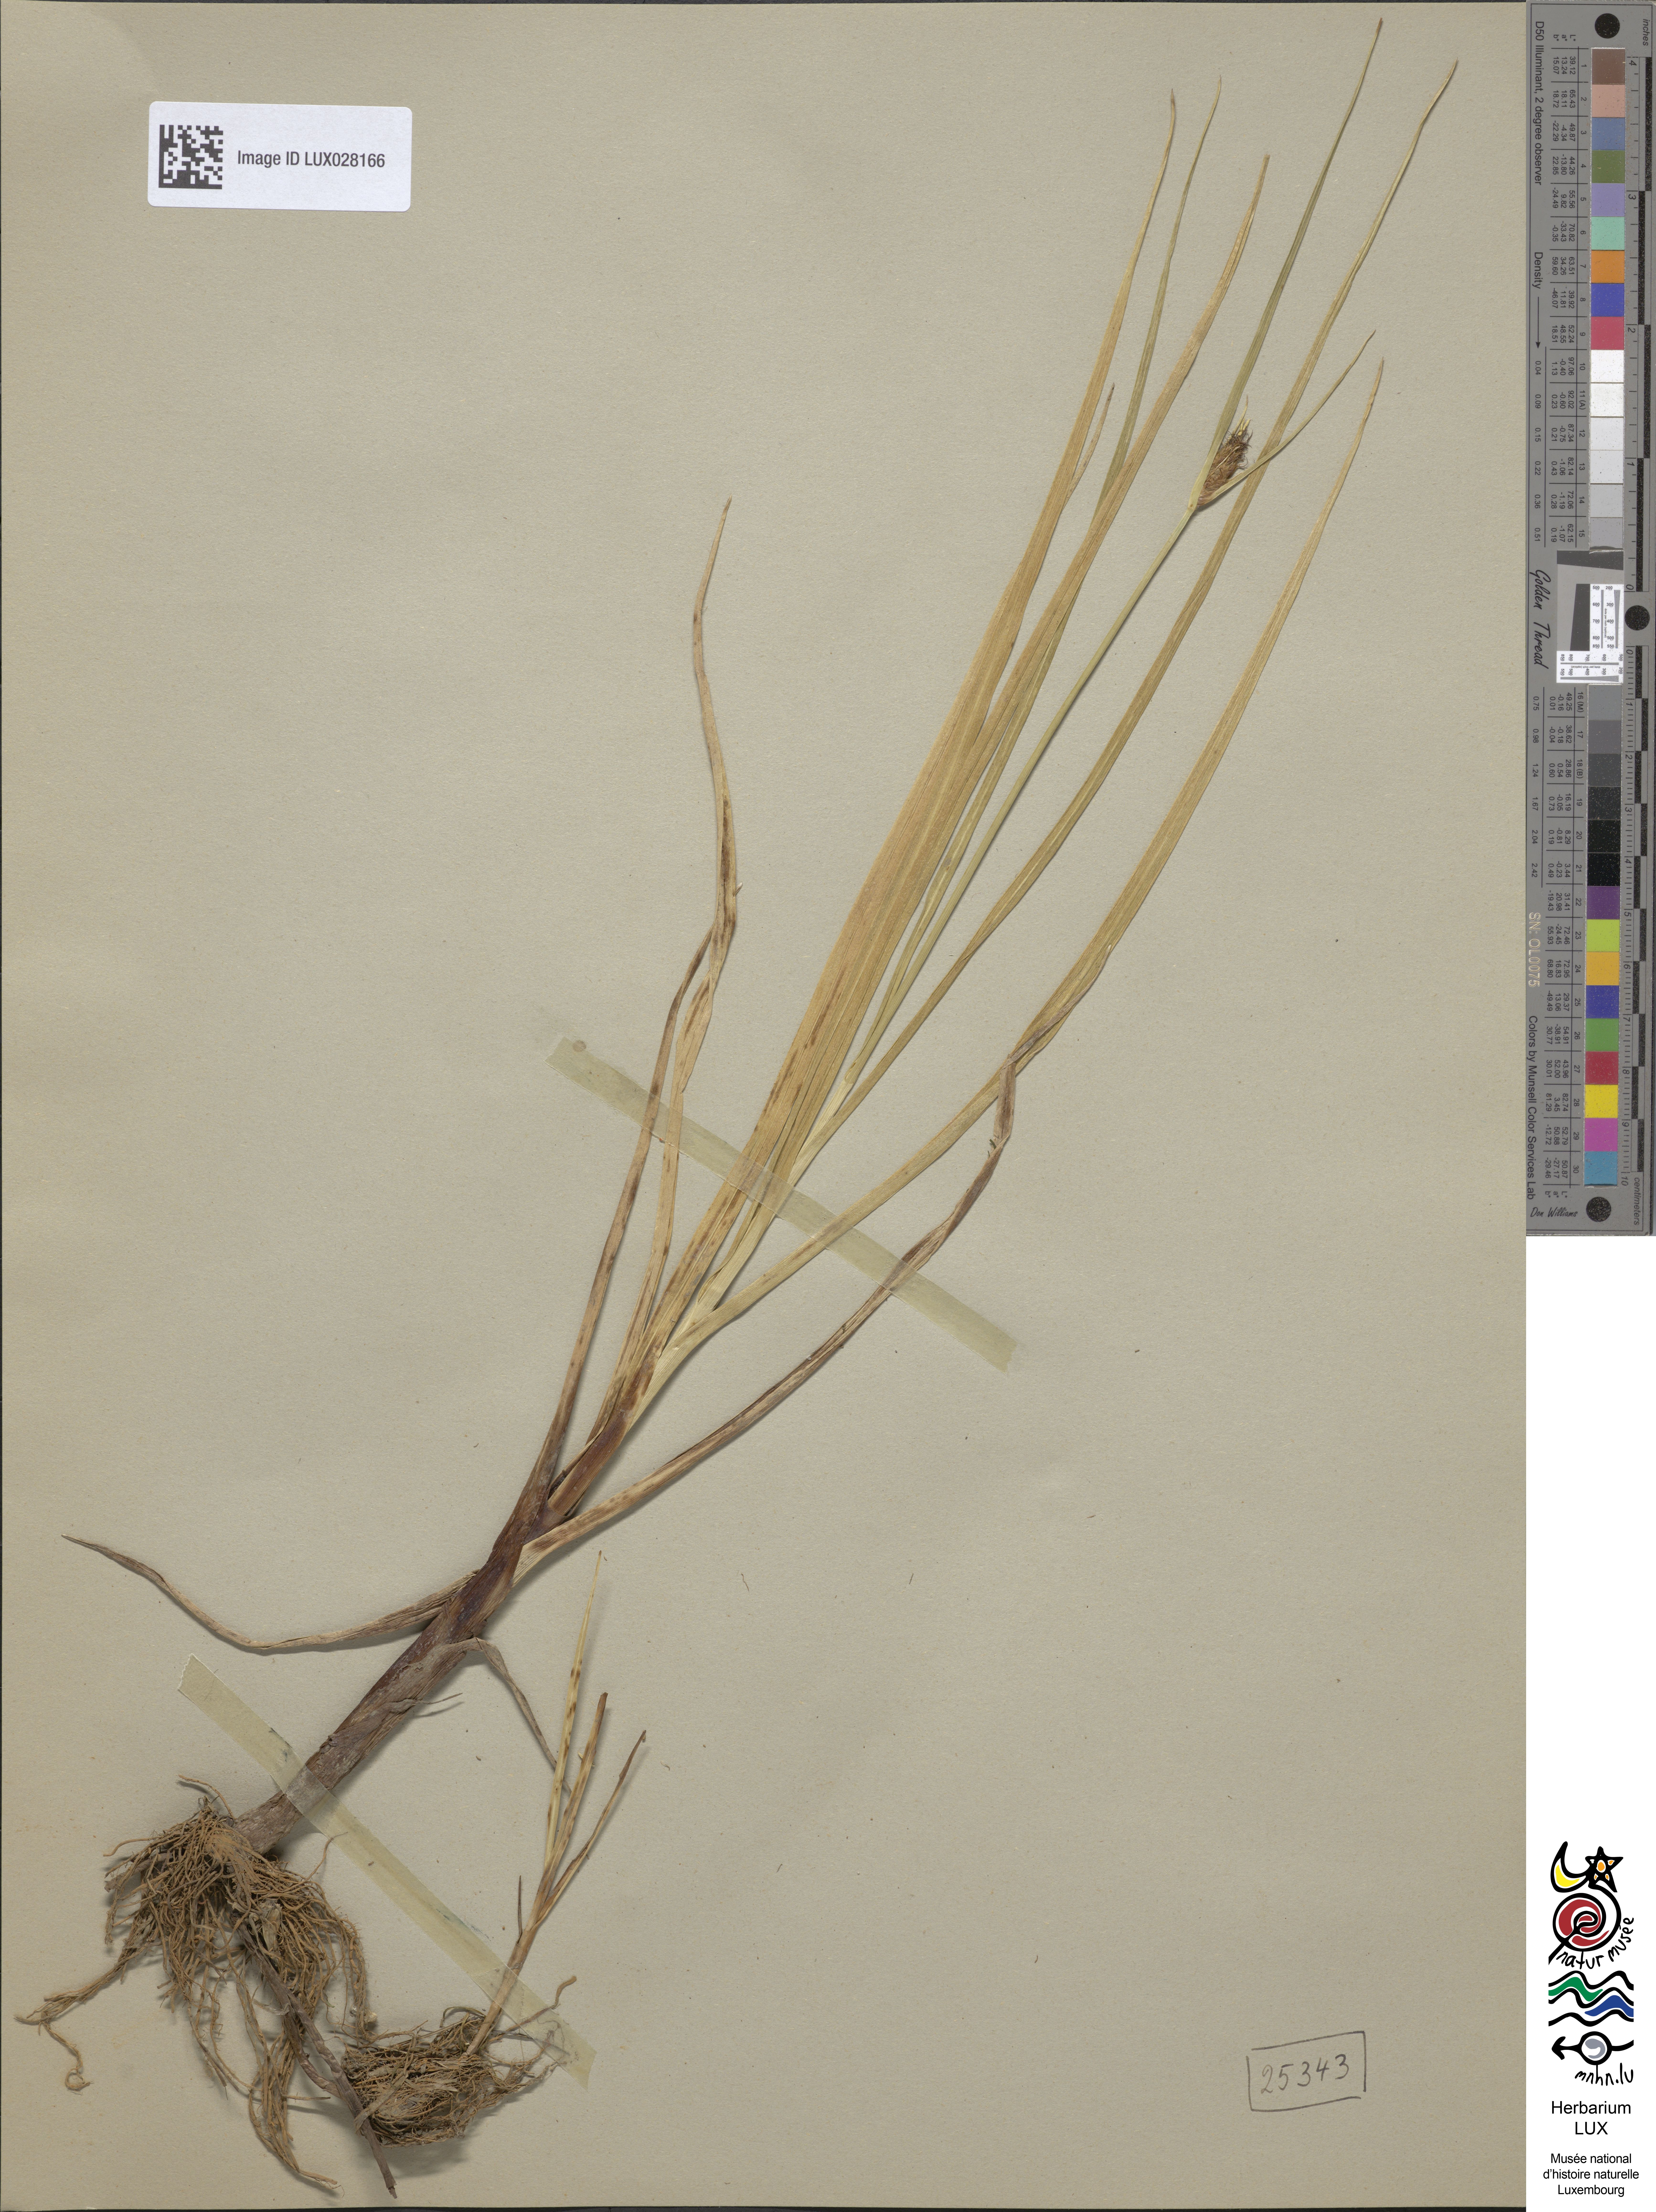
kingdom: Plantae
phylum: Tracheophyta
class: Liliopsida
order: Poales
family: Cyperaceae
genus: Bolboschoenus
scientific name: Bolboschoenus maritimus
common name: Sea club-rush
